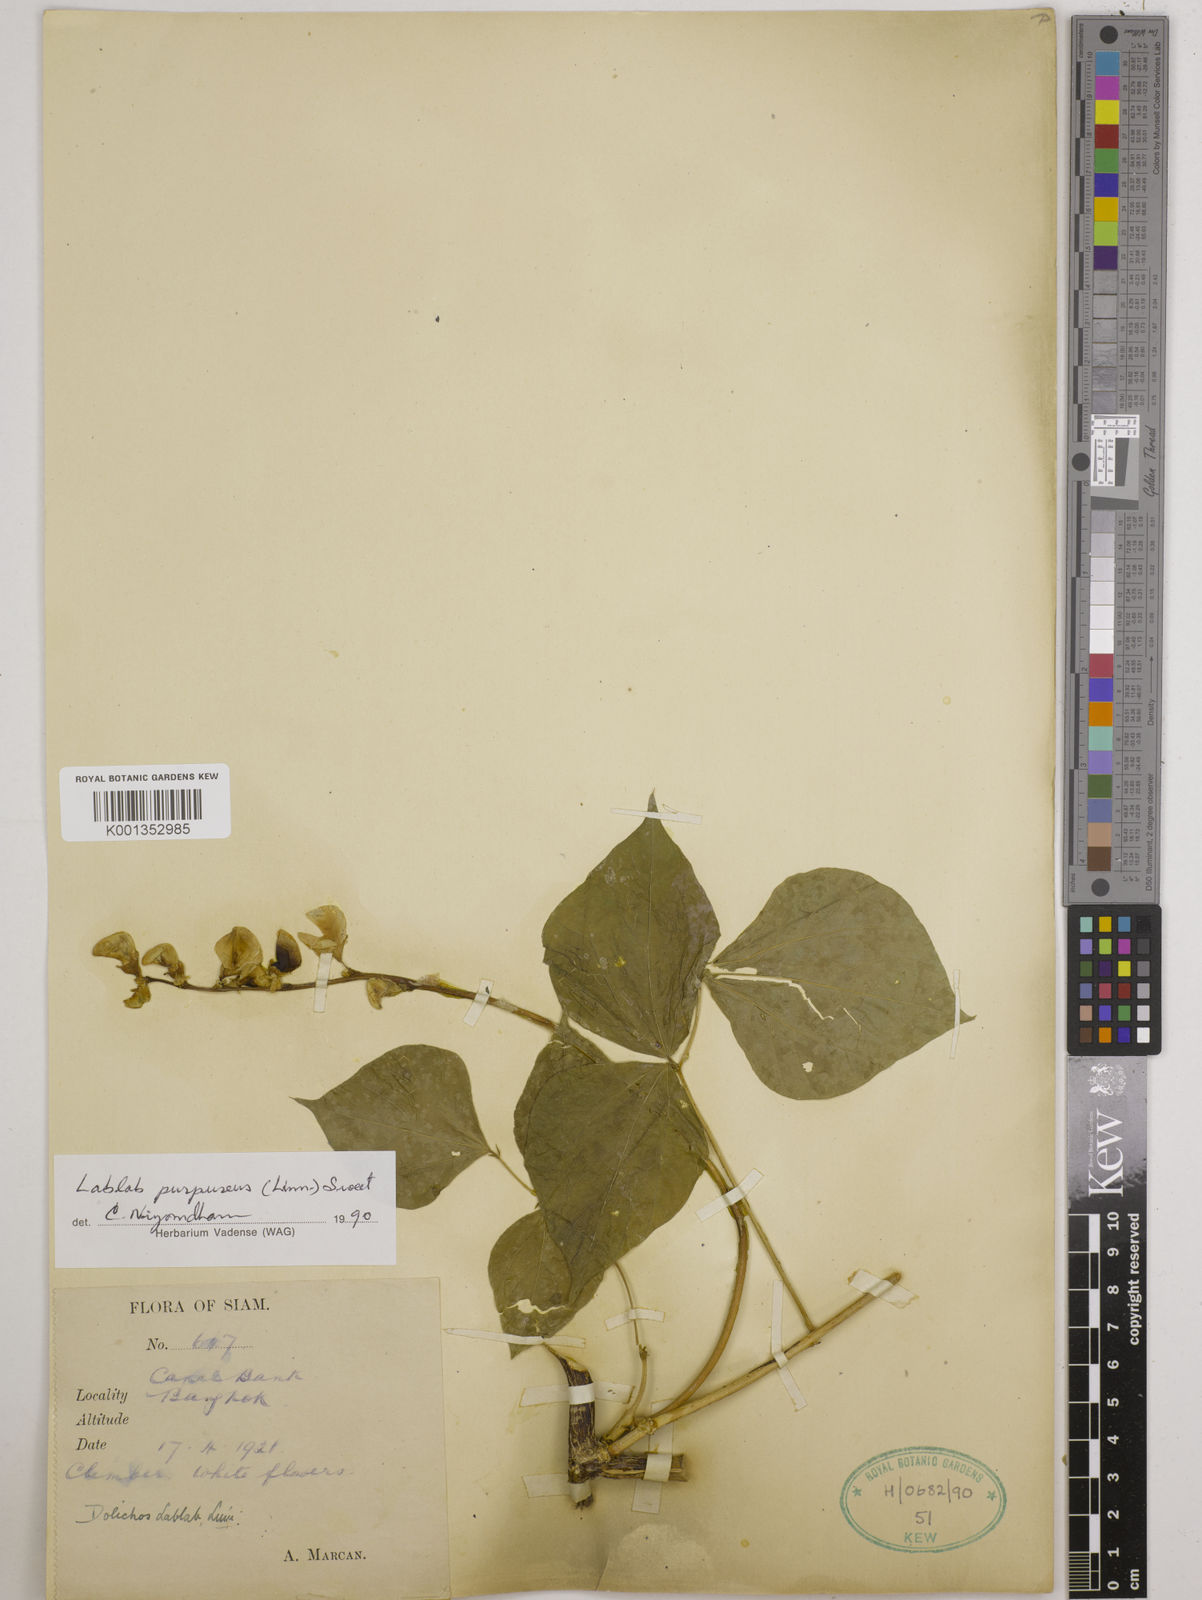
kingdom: Plantae
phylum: Tracheophyta
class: Magnoliopsida
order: Fabales
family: Fabaceae
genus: Lablab
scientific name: Lablab purpureus
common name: Lablab-bean
